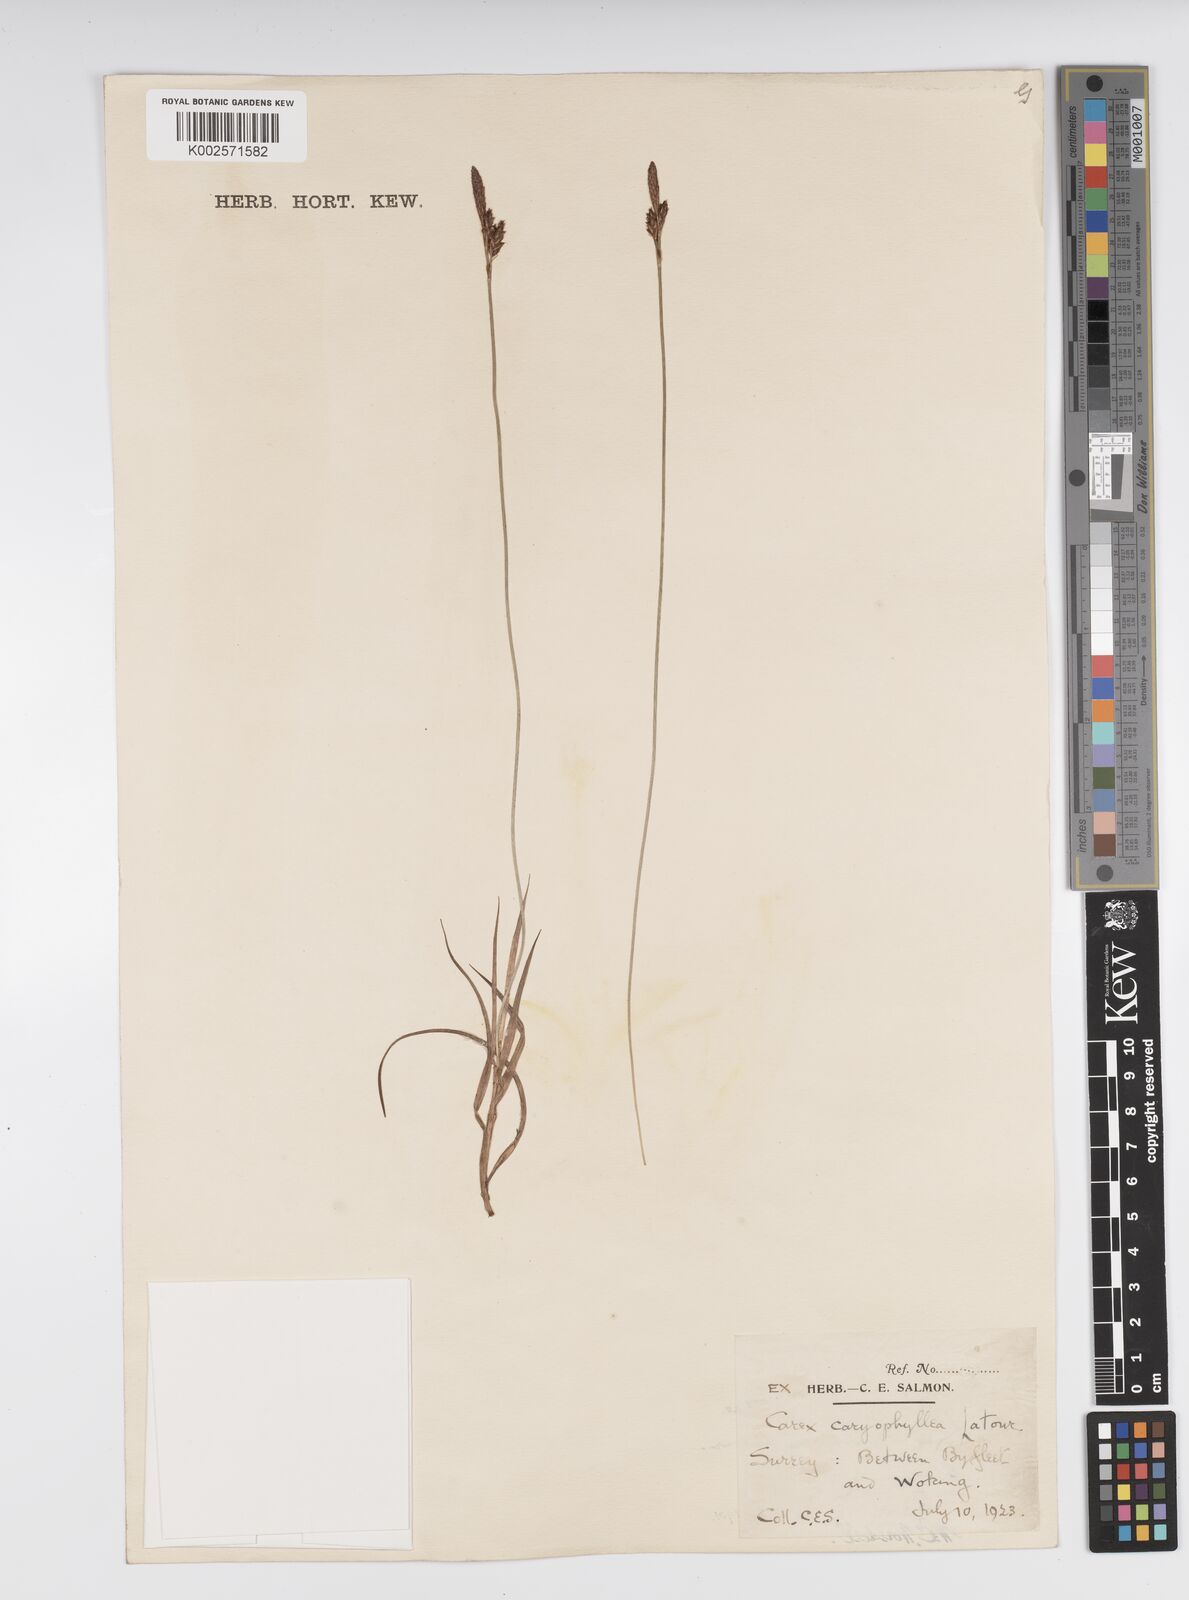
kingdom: Plantae
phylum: Tracheophyta
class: Liliopsida
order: Poales
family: Cyperaceae
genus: Carex
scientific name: Carex caryophyllea
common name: Spring sedge
